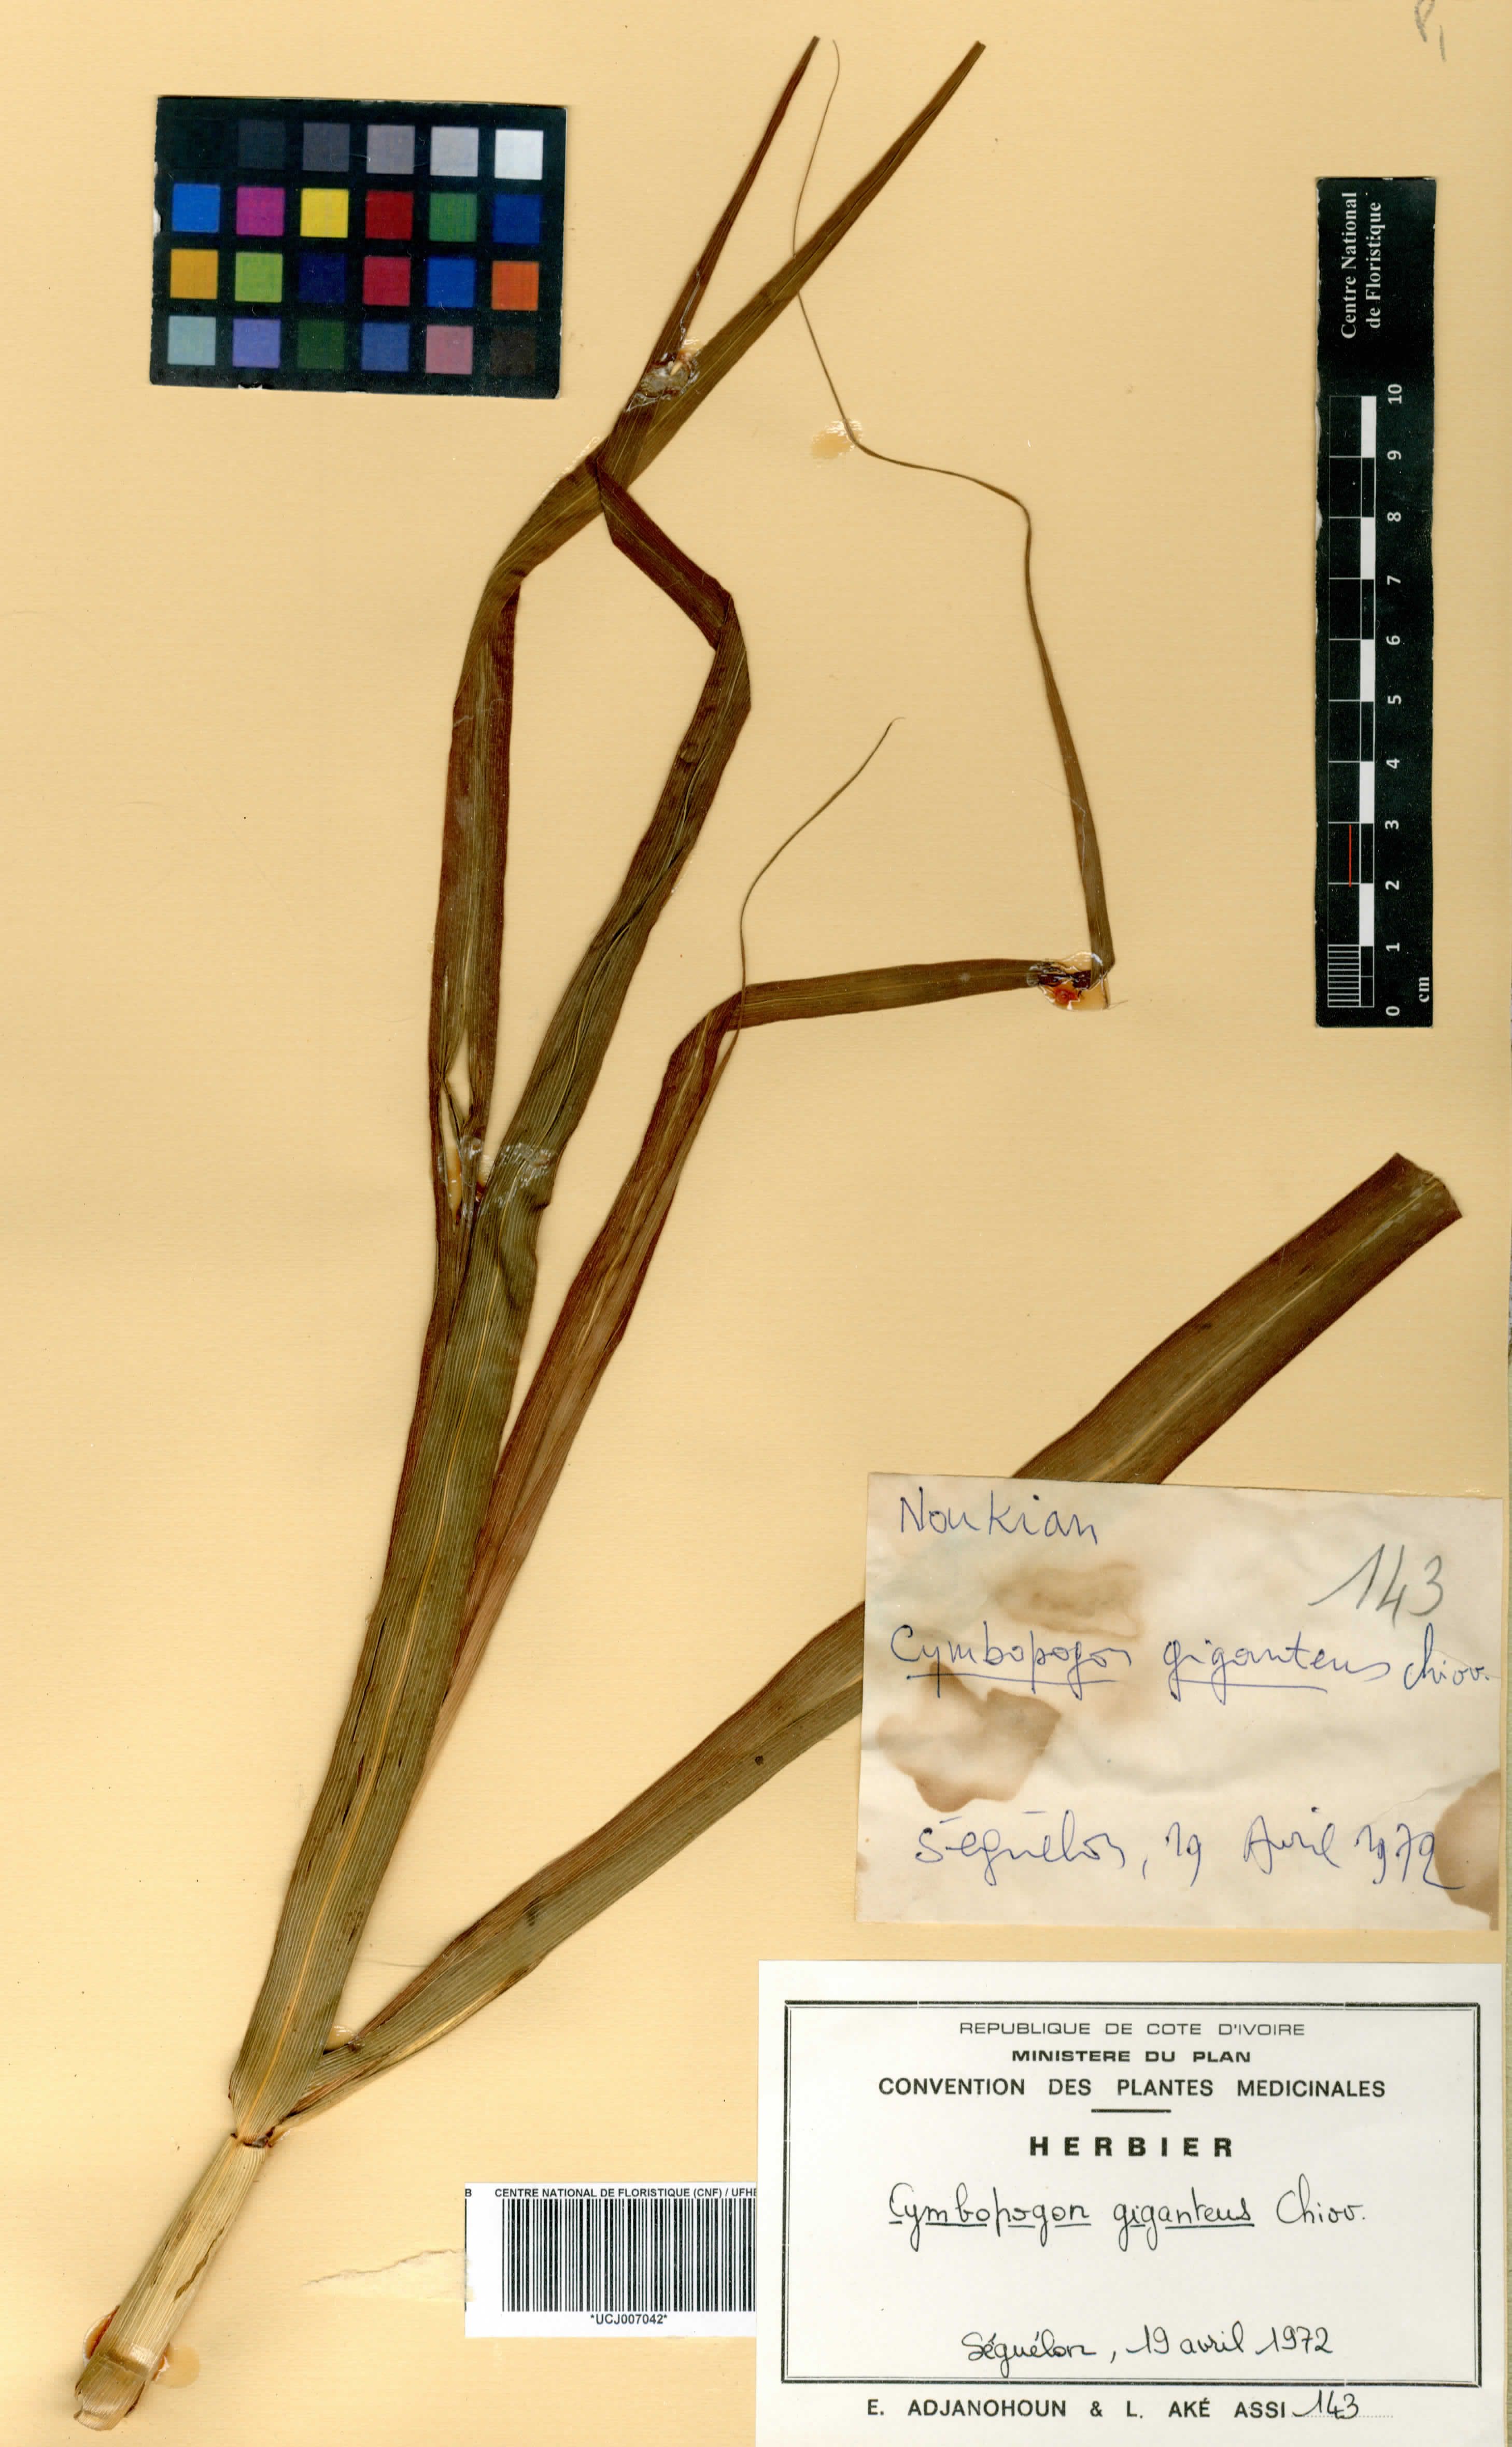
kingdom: Plantae
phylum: Tracheophyta
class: Liliopsida
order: Poales
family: Poaceae
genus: Cymbopogon
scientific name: Cymbopogon giganteus
